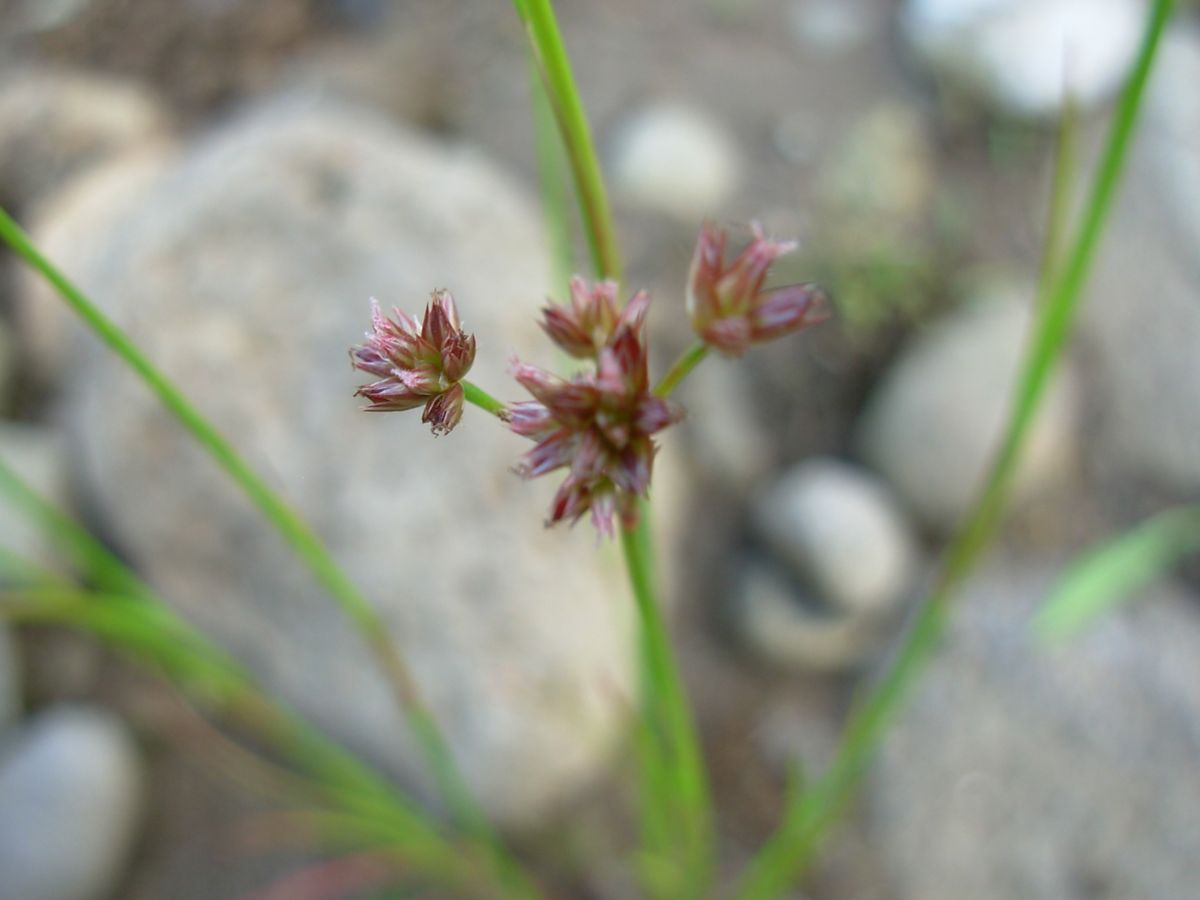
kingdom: Plantae
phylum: Tracheophyta
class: Liliopsida
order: Poales
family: Cyperaceae
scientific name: Cyperaceae
